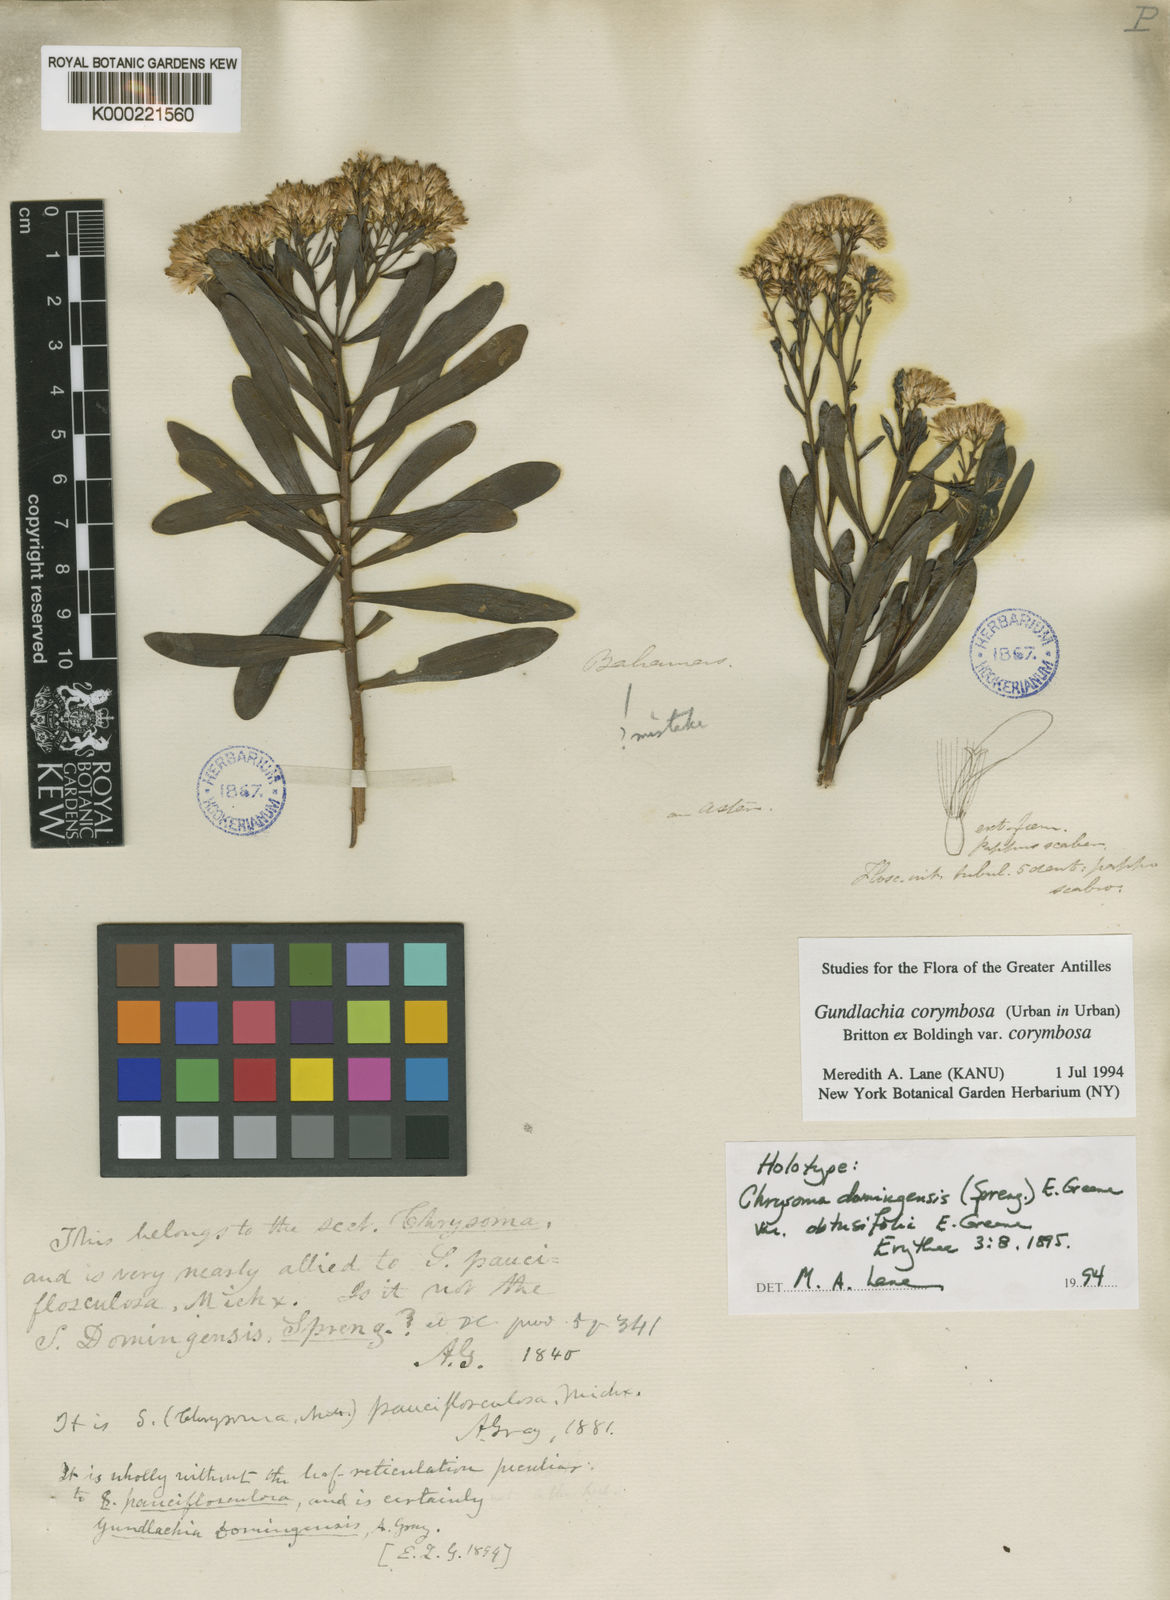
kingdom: Plantae
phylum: Tracheophyta
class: Magnoliopsida
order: Asterales
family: Asteraceae
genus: Gundlachia
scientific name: Gundlachia corymbosa
